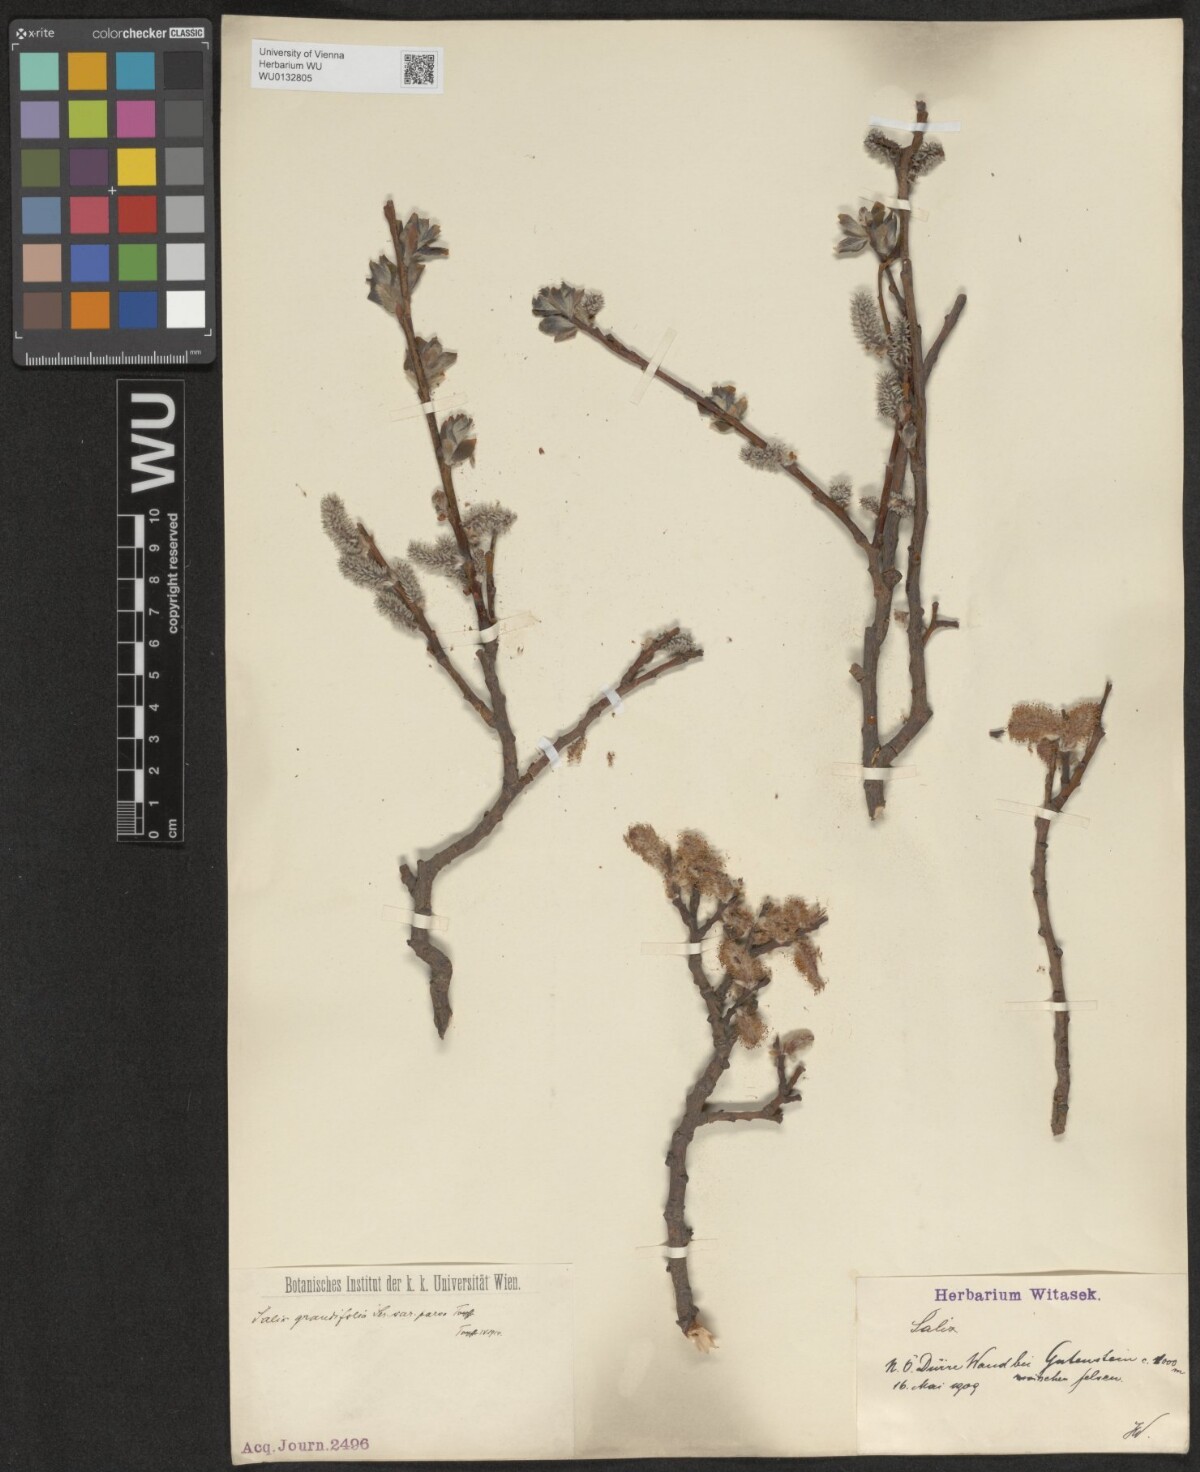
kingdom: Plantae
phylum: Tracheophyta
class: Magnoliopsida
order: Malpighiales
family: Salicaceae
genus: Salix
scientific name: Salix appendiculata
